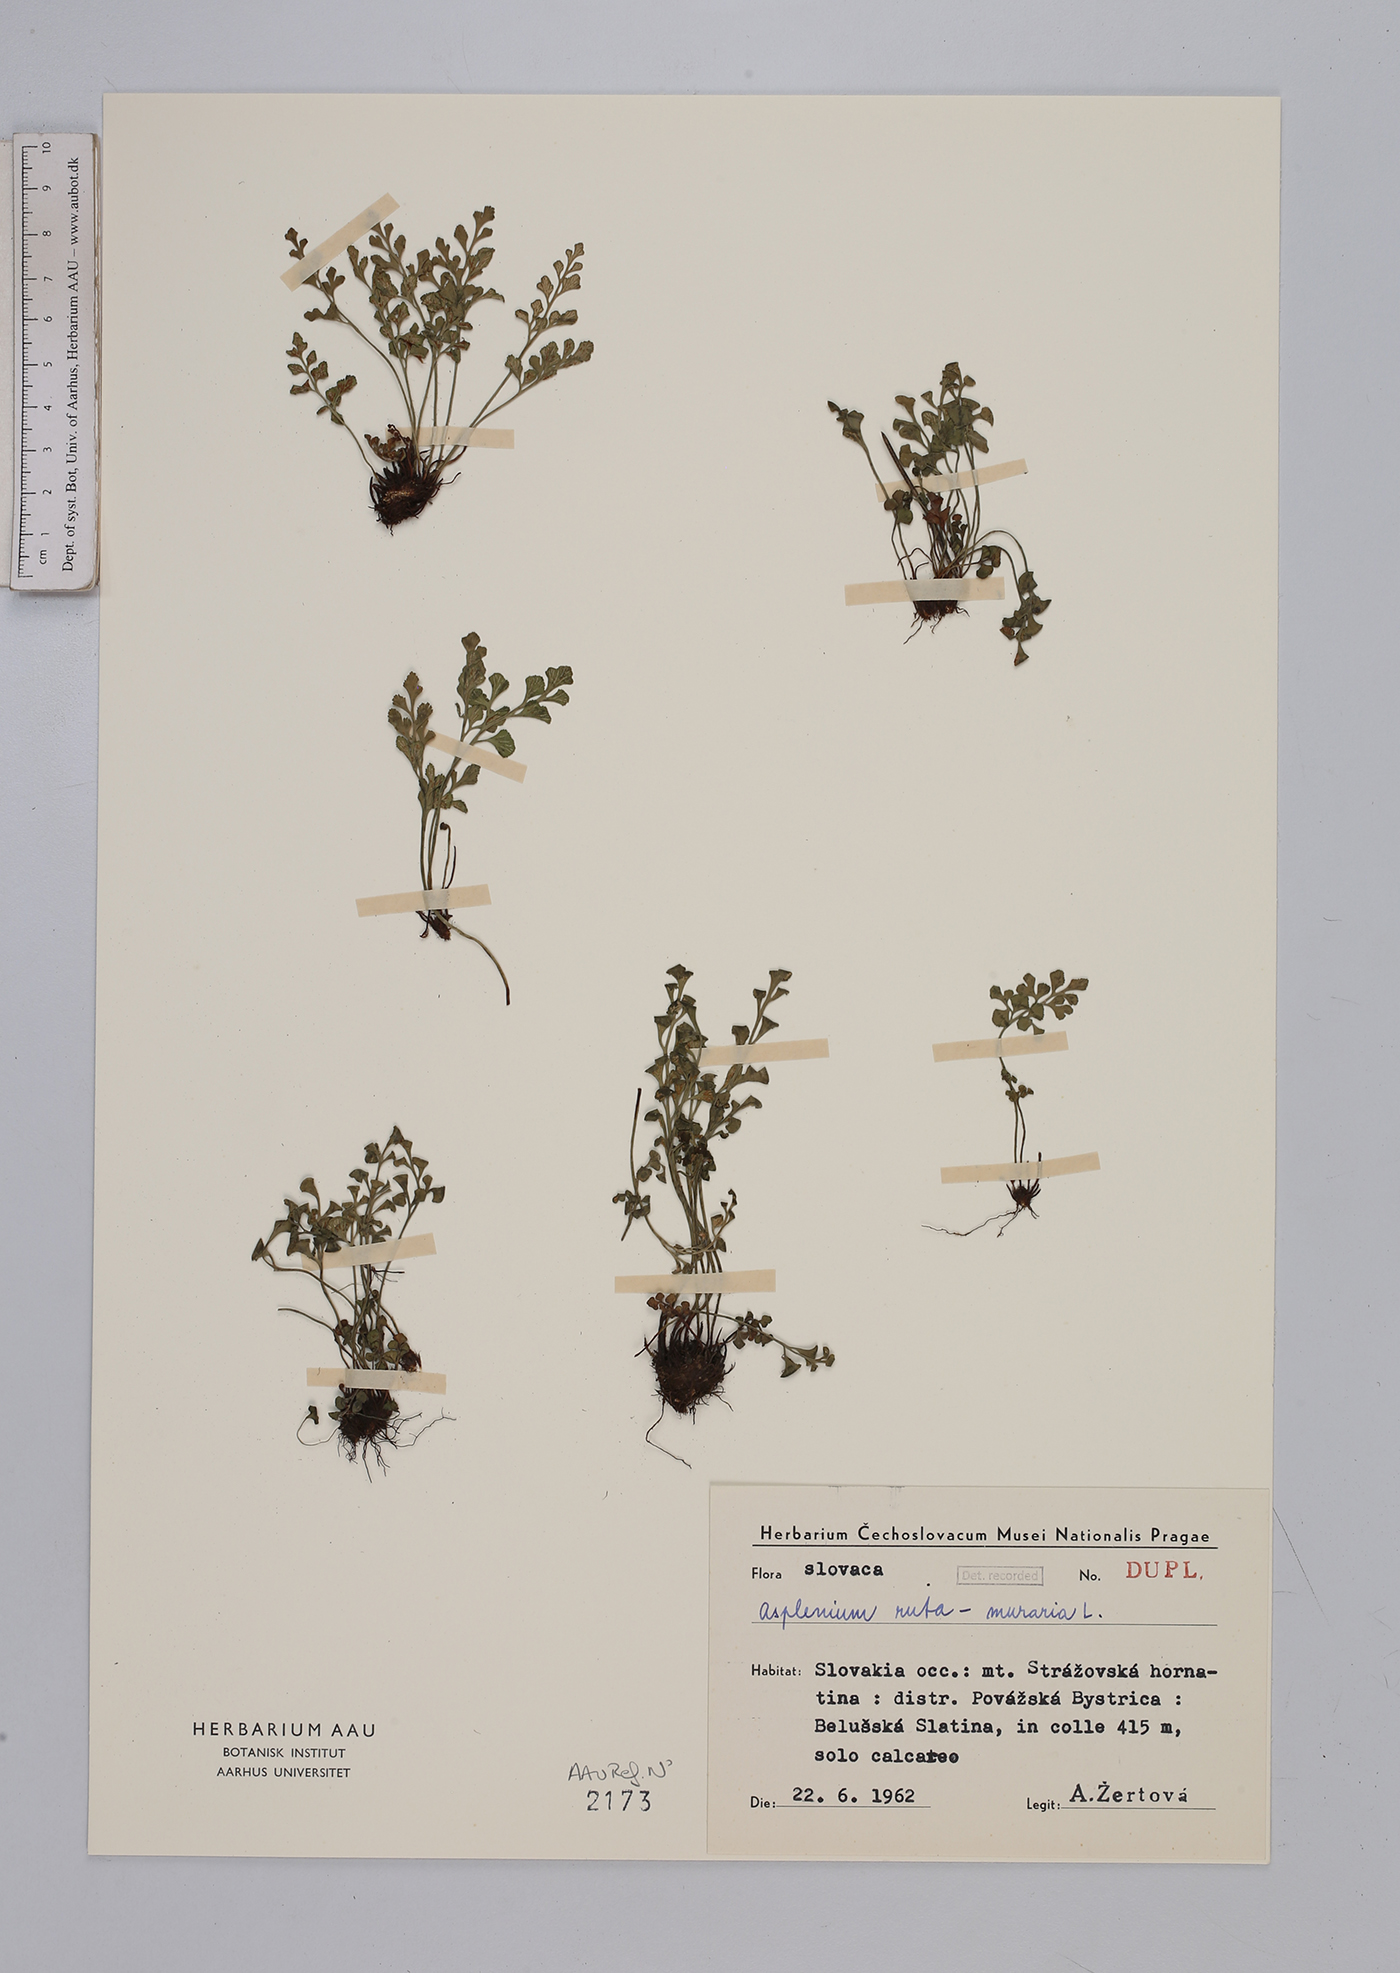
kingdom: Plantae
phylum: Tracheophyta
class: Polypodiopsida
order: Polypodiales
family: Aspleniaceae
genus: Asplenium
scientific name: Asplenium ruta-muraria
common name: Wall-rue
